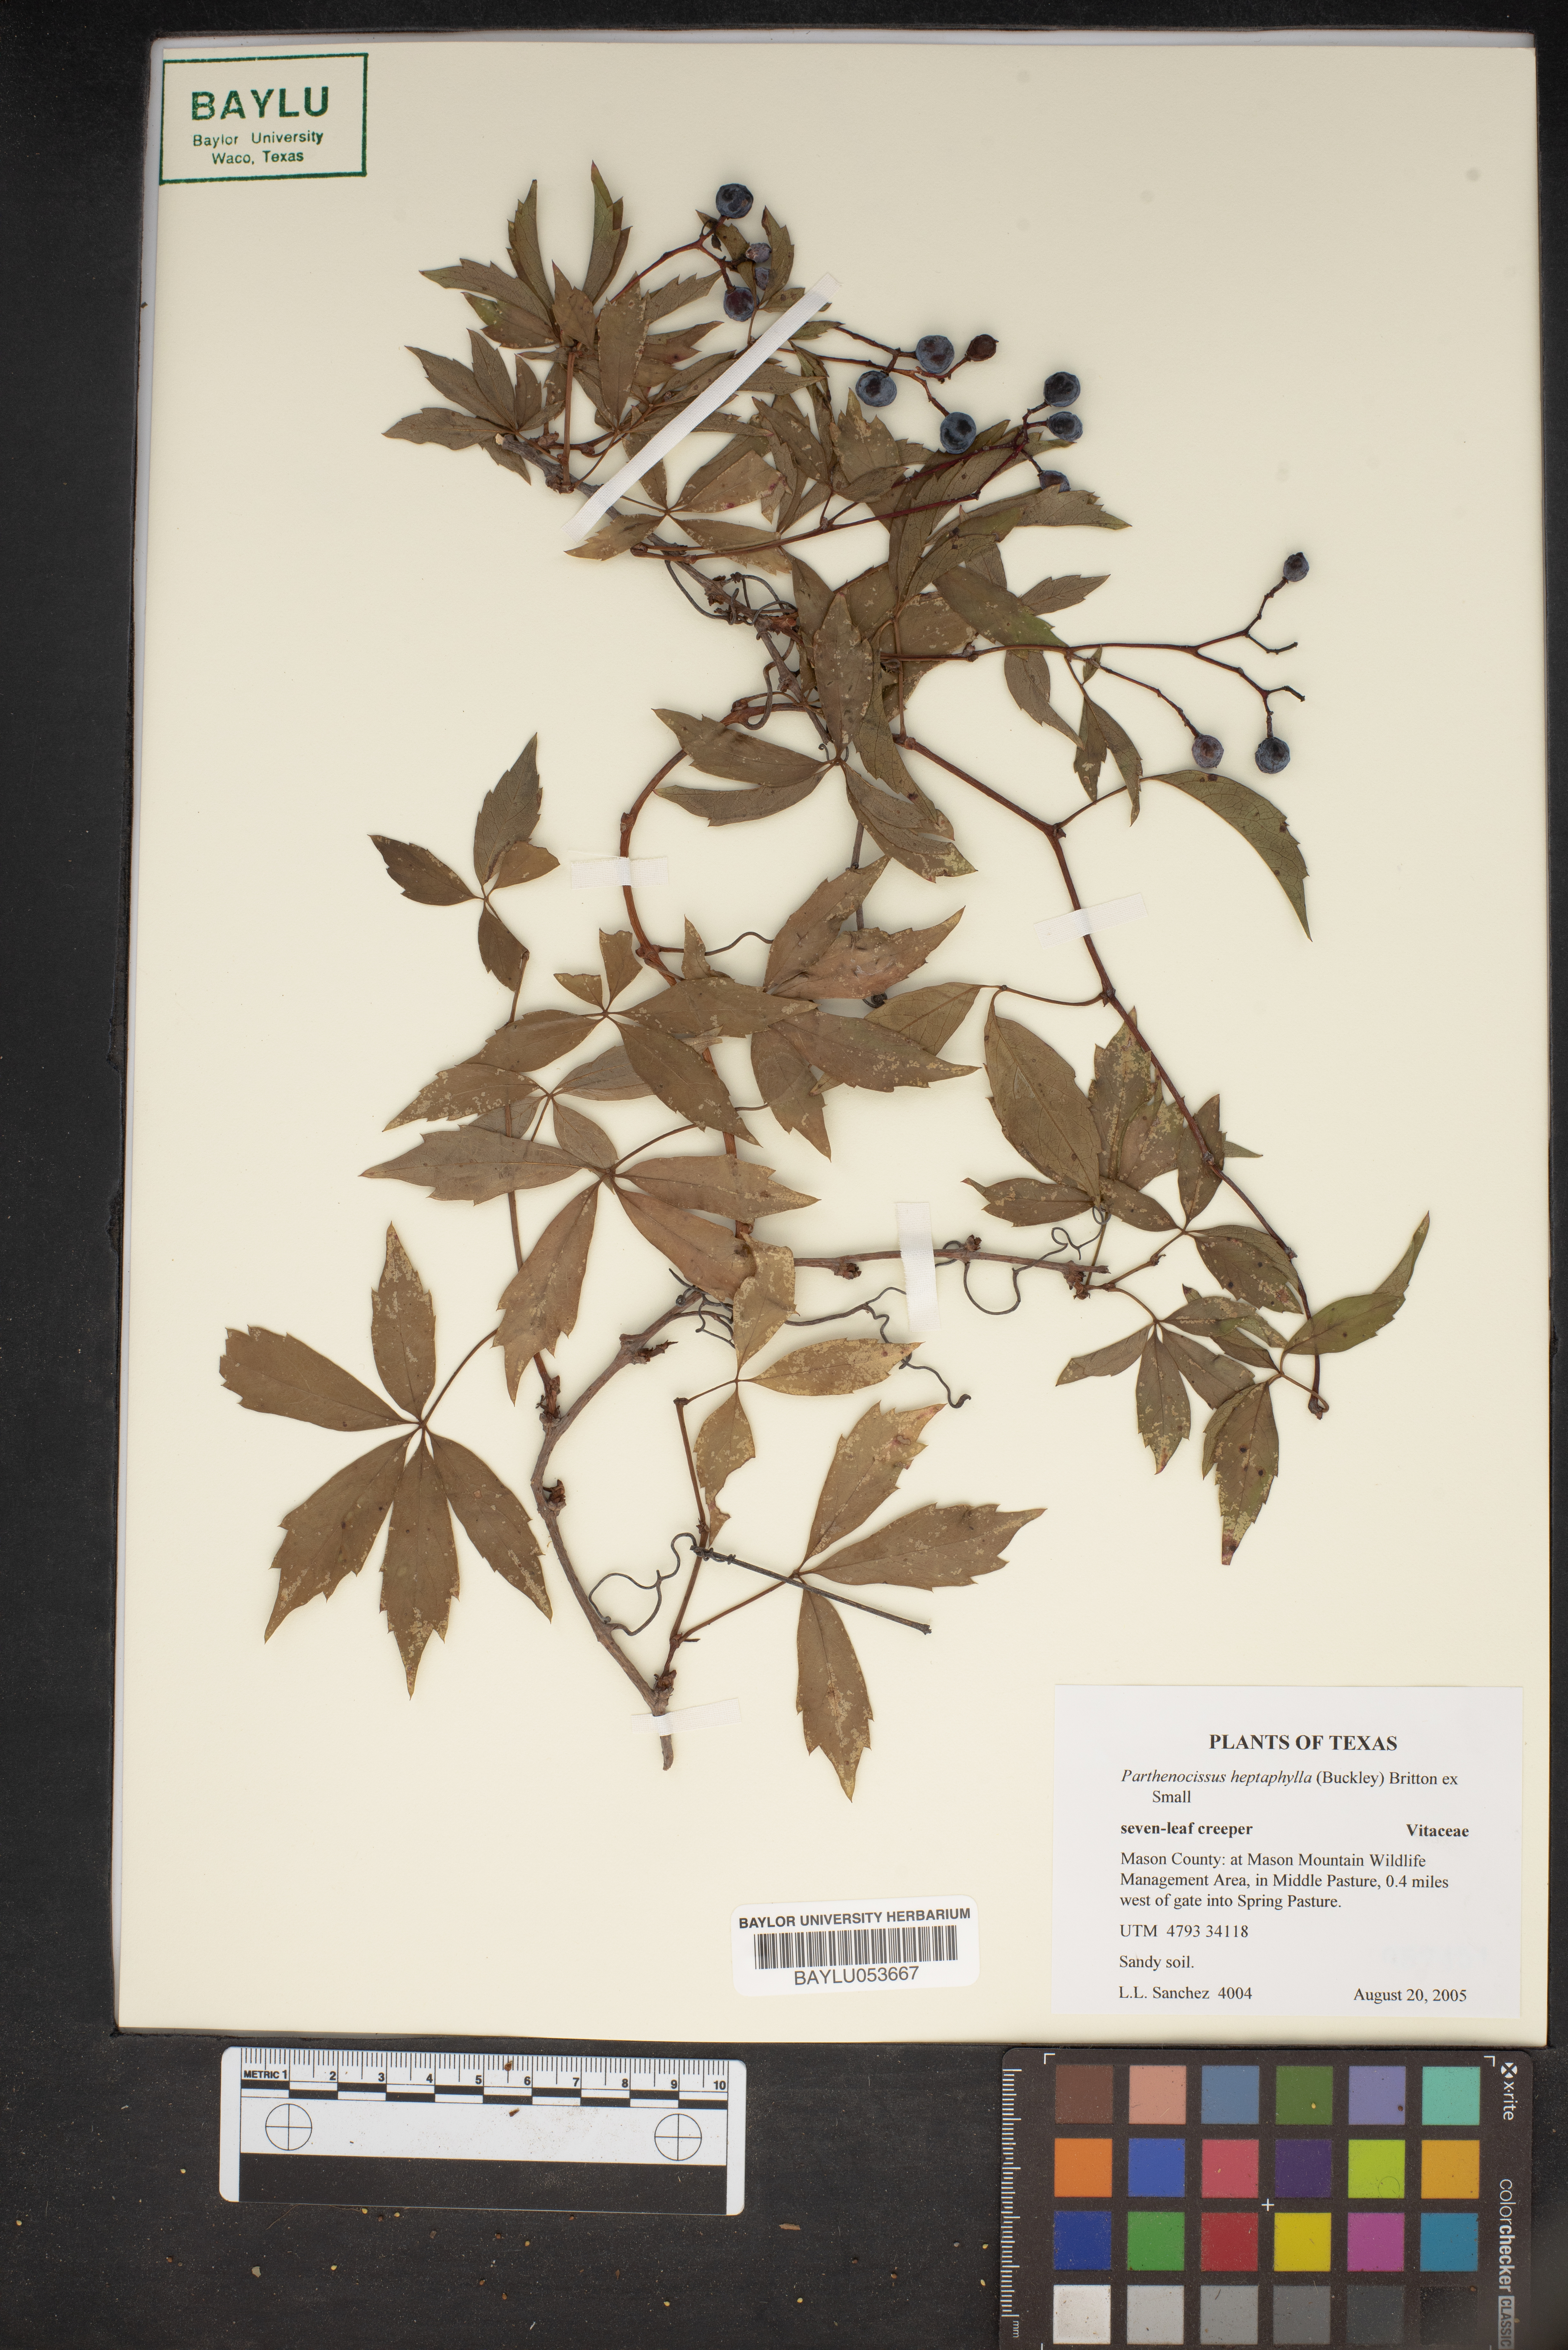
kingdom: Plantae
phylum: Tracheophyta
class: Magnoliopsida
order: Vitales
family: Vitaceae
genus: Parthenocissus
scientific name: Parthenocissus heptaphylla
